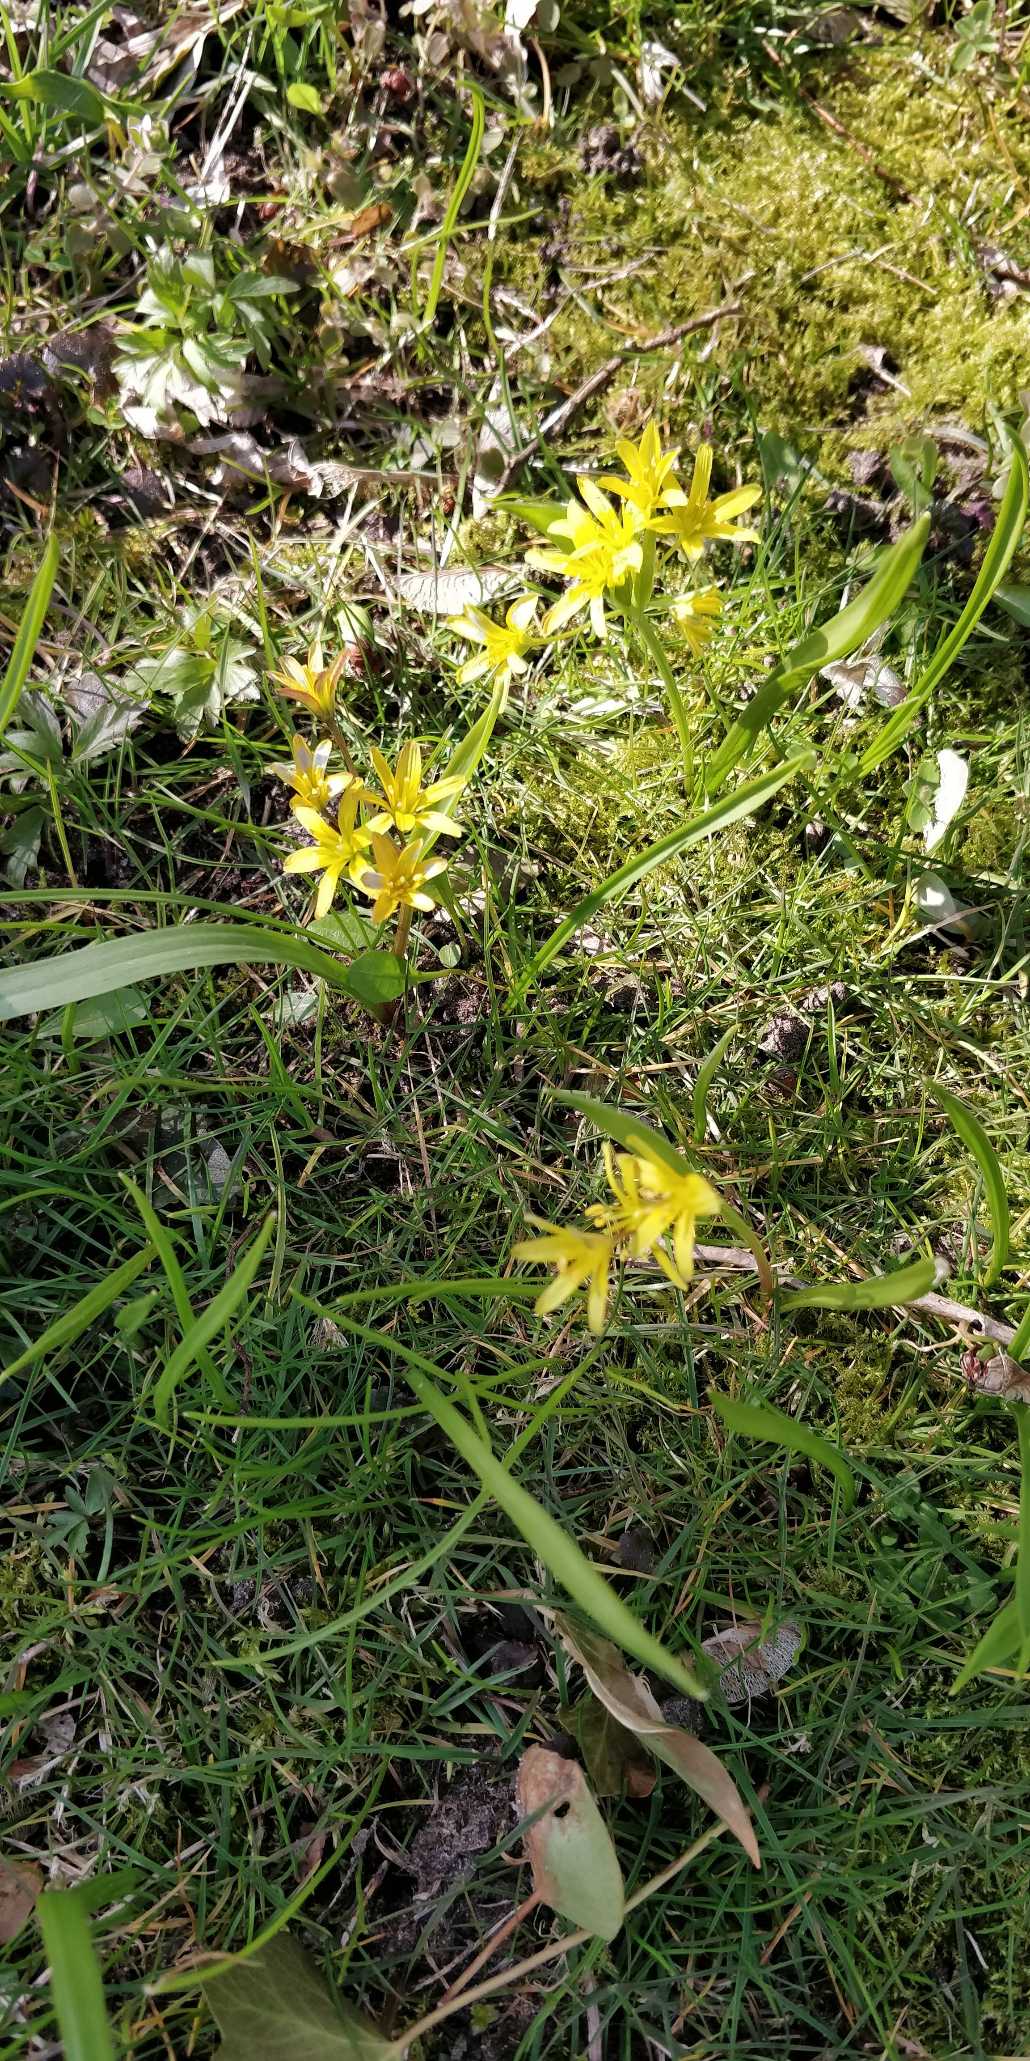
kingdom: Plantae
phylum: Tracheophyta
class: Liliopsida
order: Liliales
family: Liliaceae
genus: Gagea
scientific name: Gagea lutea
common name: Almindelig guldstjerne
